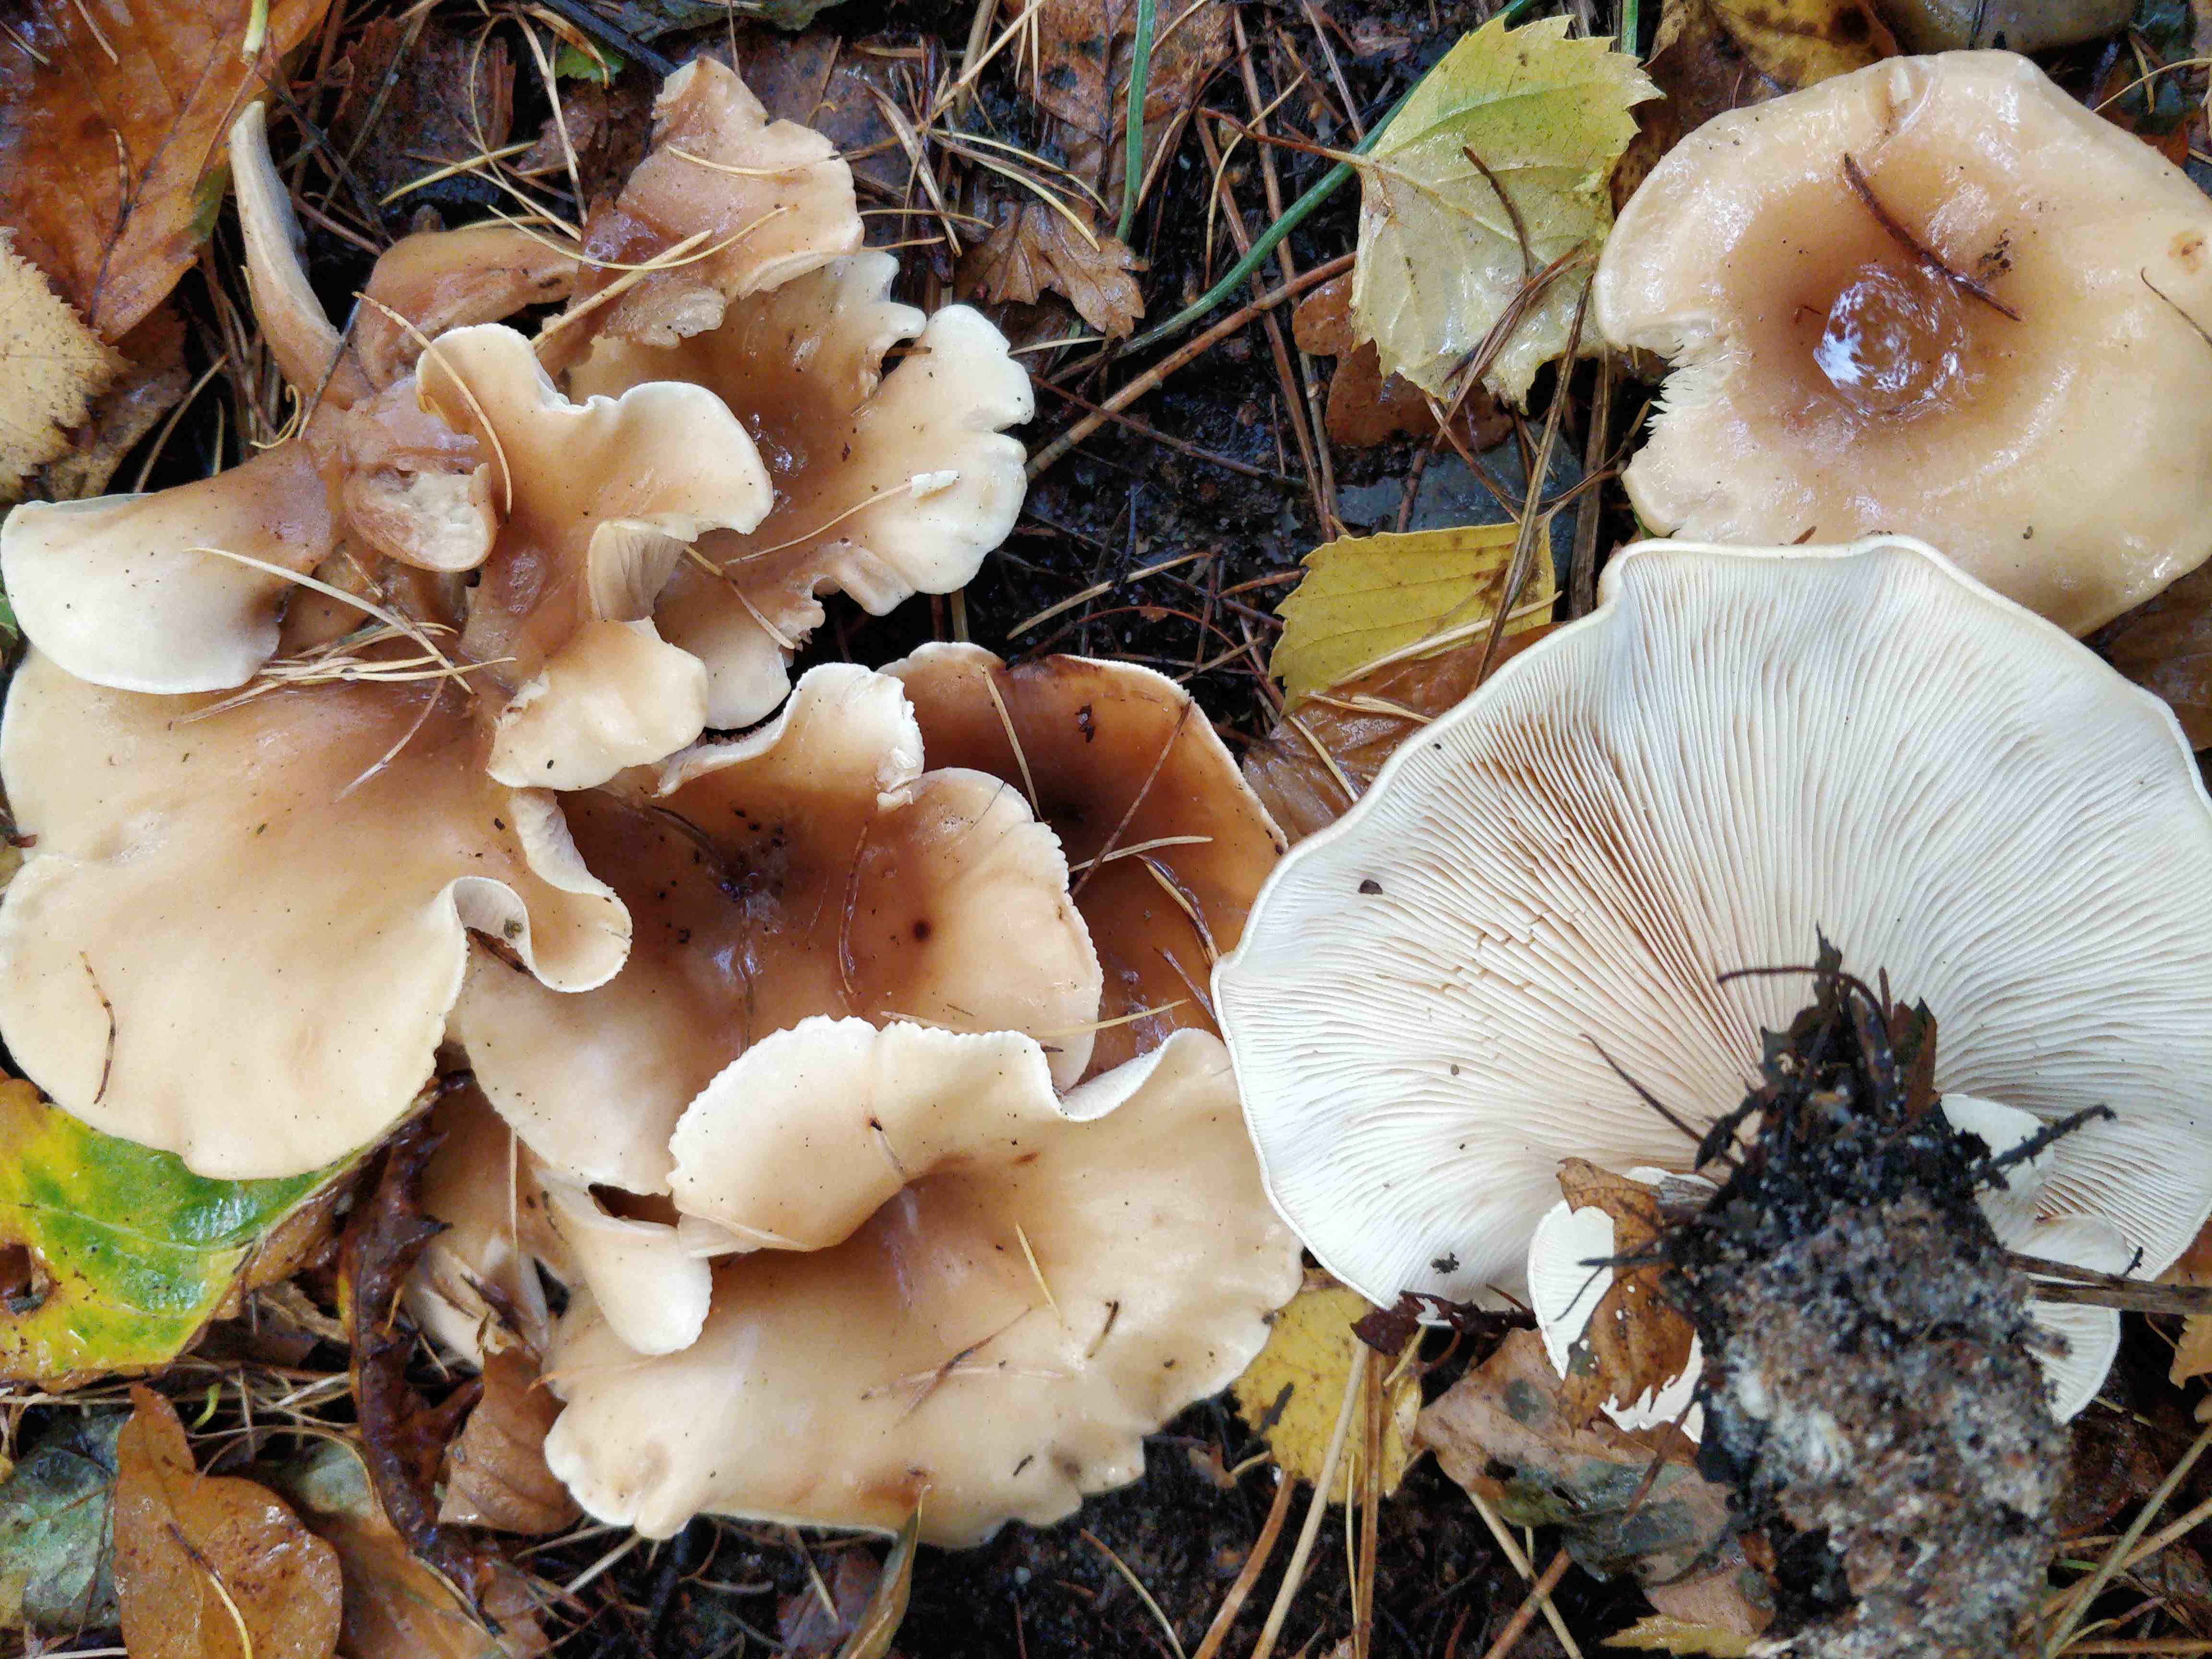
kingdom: Fungi
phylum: Basidiomycota
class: Agaricomycetes
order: Agaricales
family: Tricholomataceae
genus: Paralepista
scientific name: Paralepista flaccida
